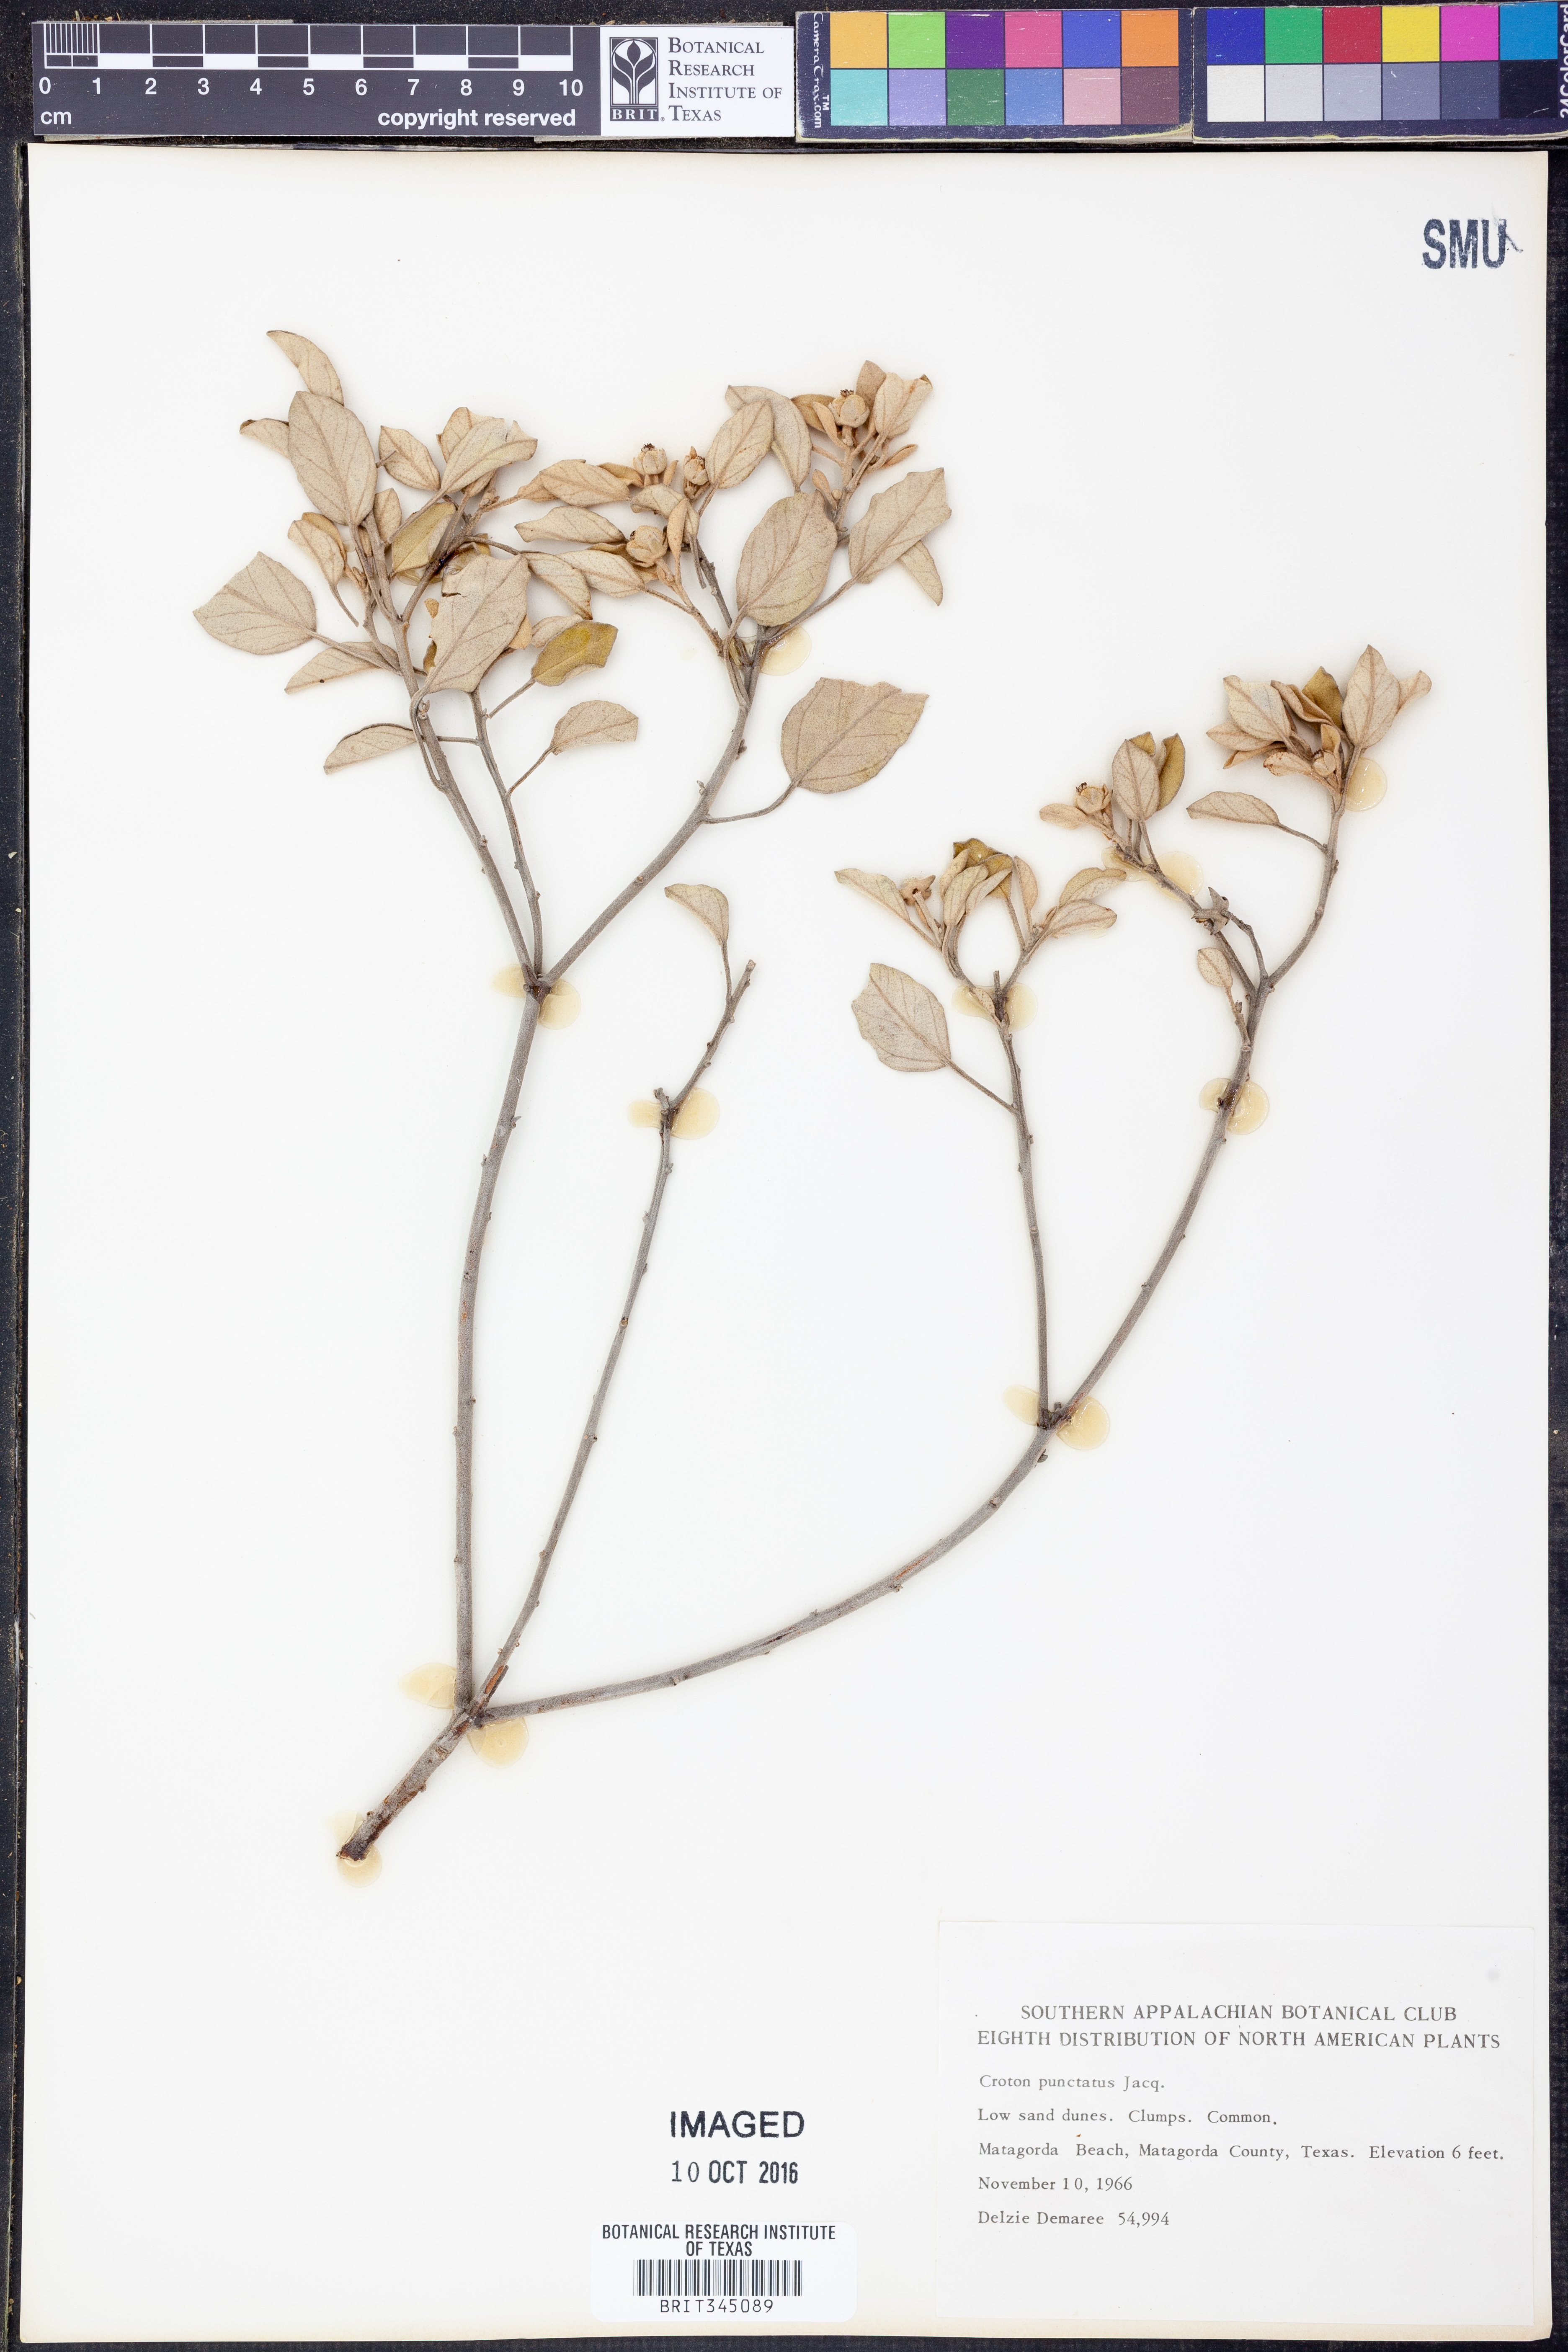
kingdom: Plantae
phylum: Tracheophyta
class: Magnoliopsida
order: Malpighiales
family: Euphorbiaceae
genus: Croton
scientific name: Croton punctatum
